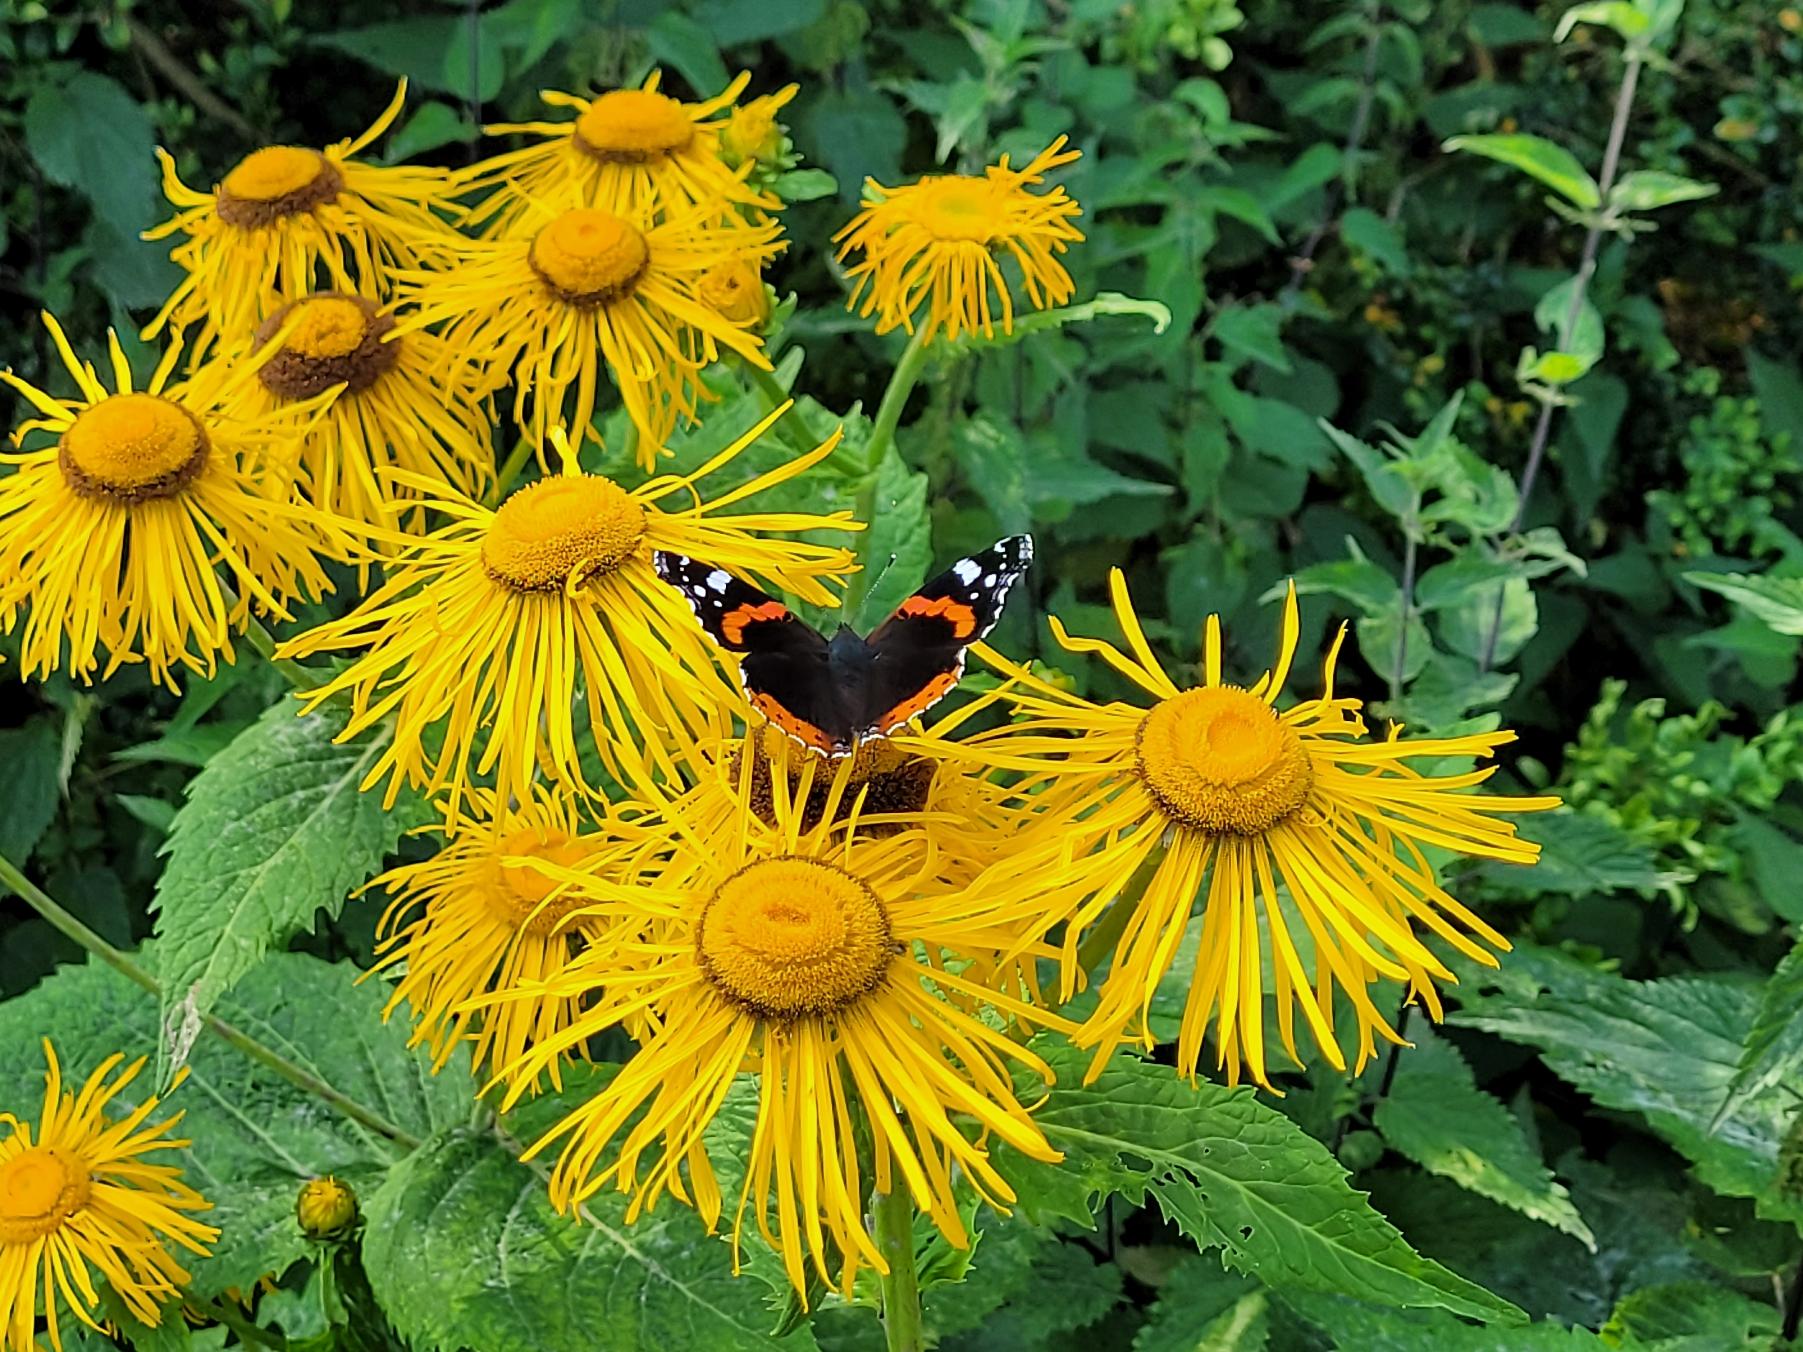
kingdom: Animalia
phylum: Arthropoda
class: Insecta
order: Lepidoptera
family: Nymphalidae
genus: Vanessa
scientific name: Vanessa atalanta
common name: Admiral
